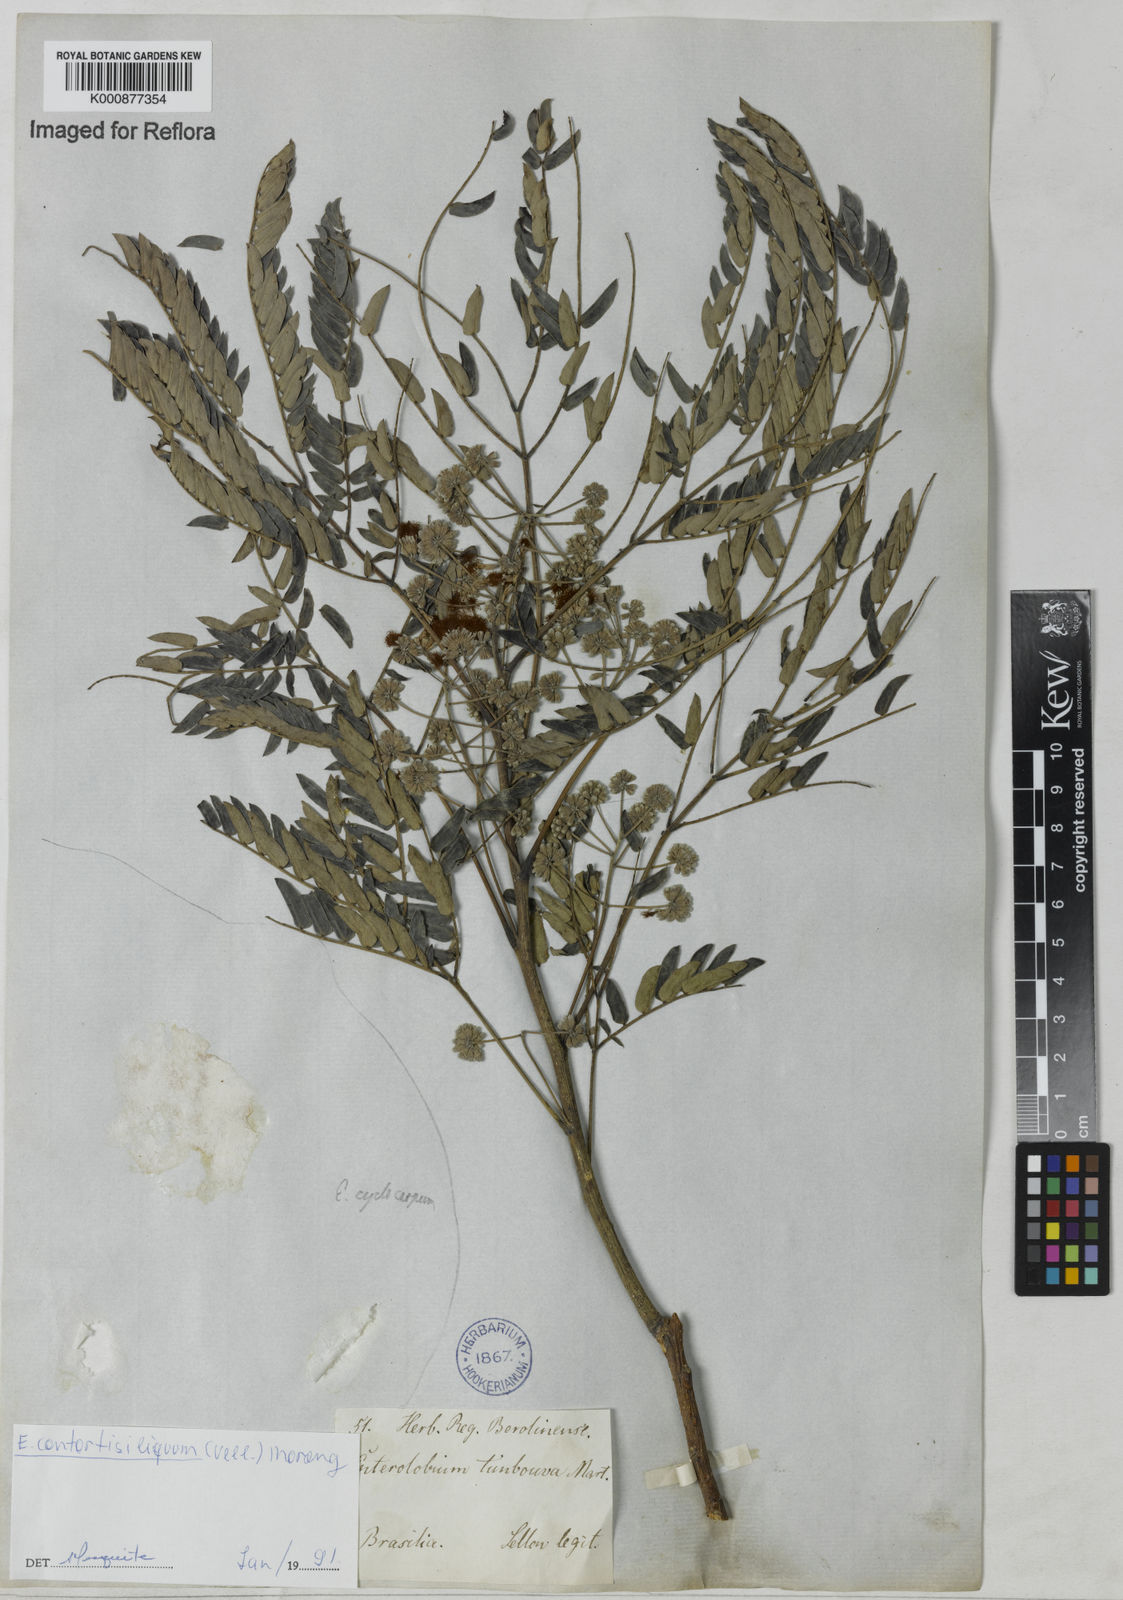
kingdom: Plantae
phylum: Tracheophyta
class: Magnoliopsida
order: Fabales
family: Fabaceae
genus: Enterolobium
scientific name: Enterolobium timbouva
